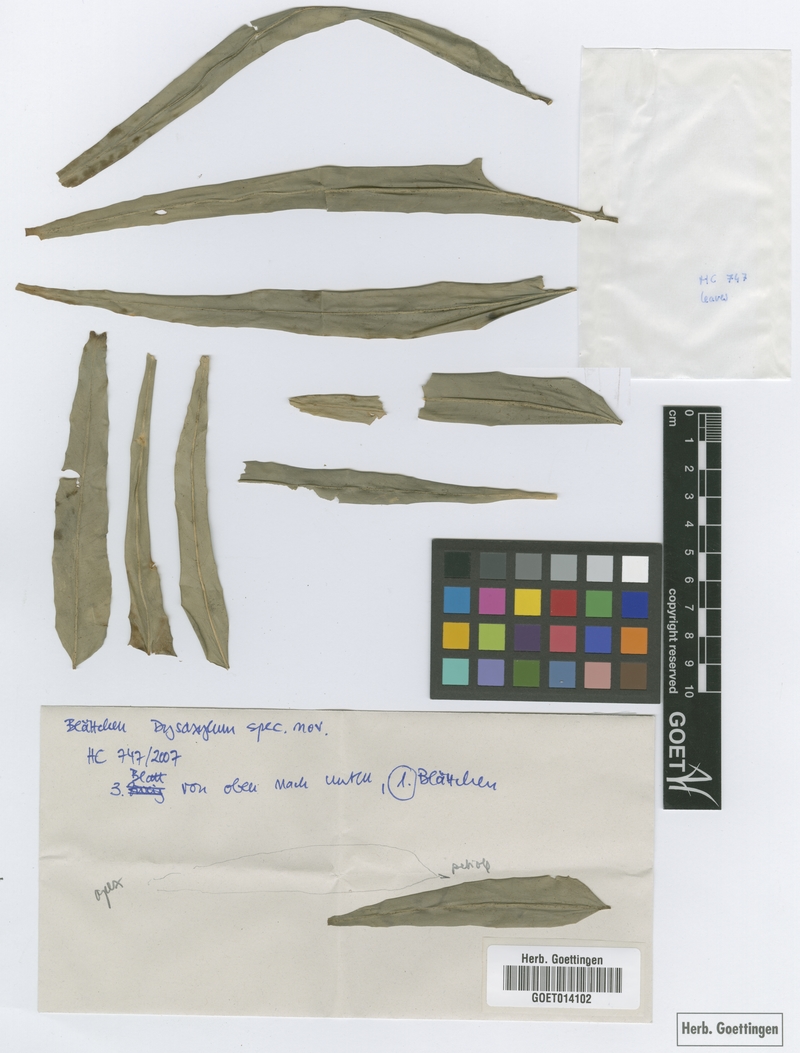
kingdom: Plantae
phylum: Tracheophyta
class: Magnoliopsida
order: Sapindales
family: Meliaceae
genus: Dysoxylum
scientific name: Dysoxylum quadrangulatum
